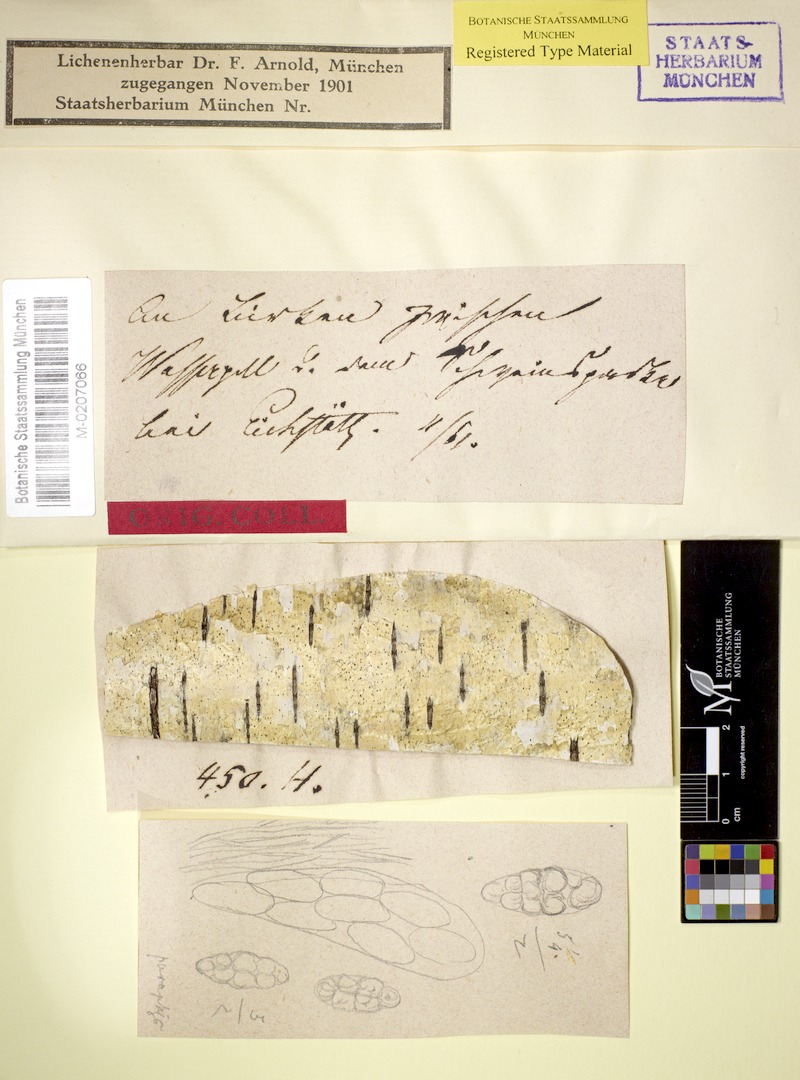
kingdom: Fungi
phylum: Ascomycota
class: Dothideomycetes
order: Trypetheliales
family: Trypetheliaceae
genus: Arthopyrenia
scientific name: Arthopyrenia fallaciosa
